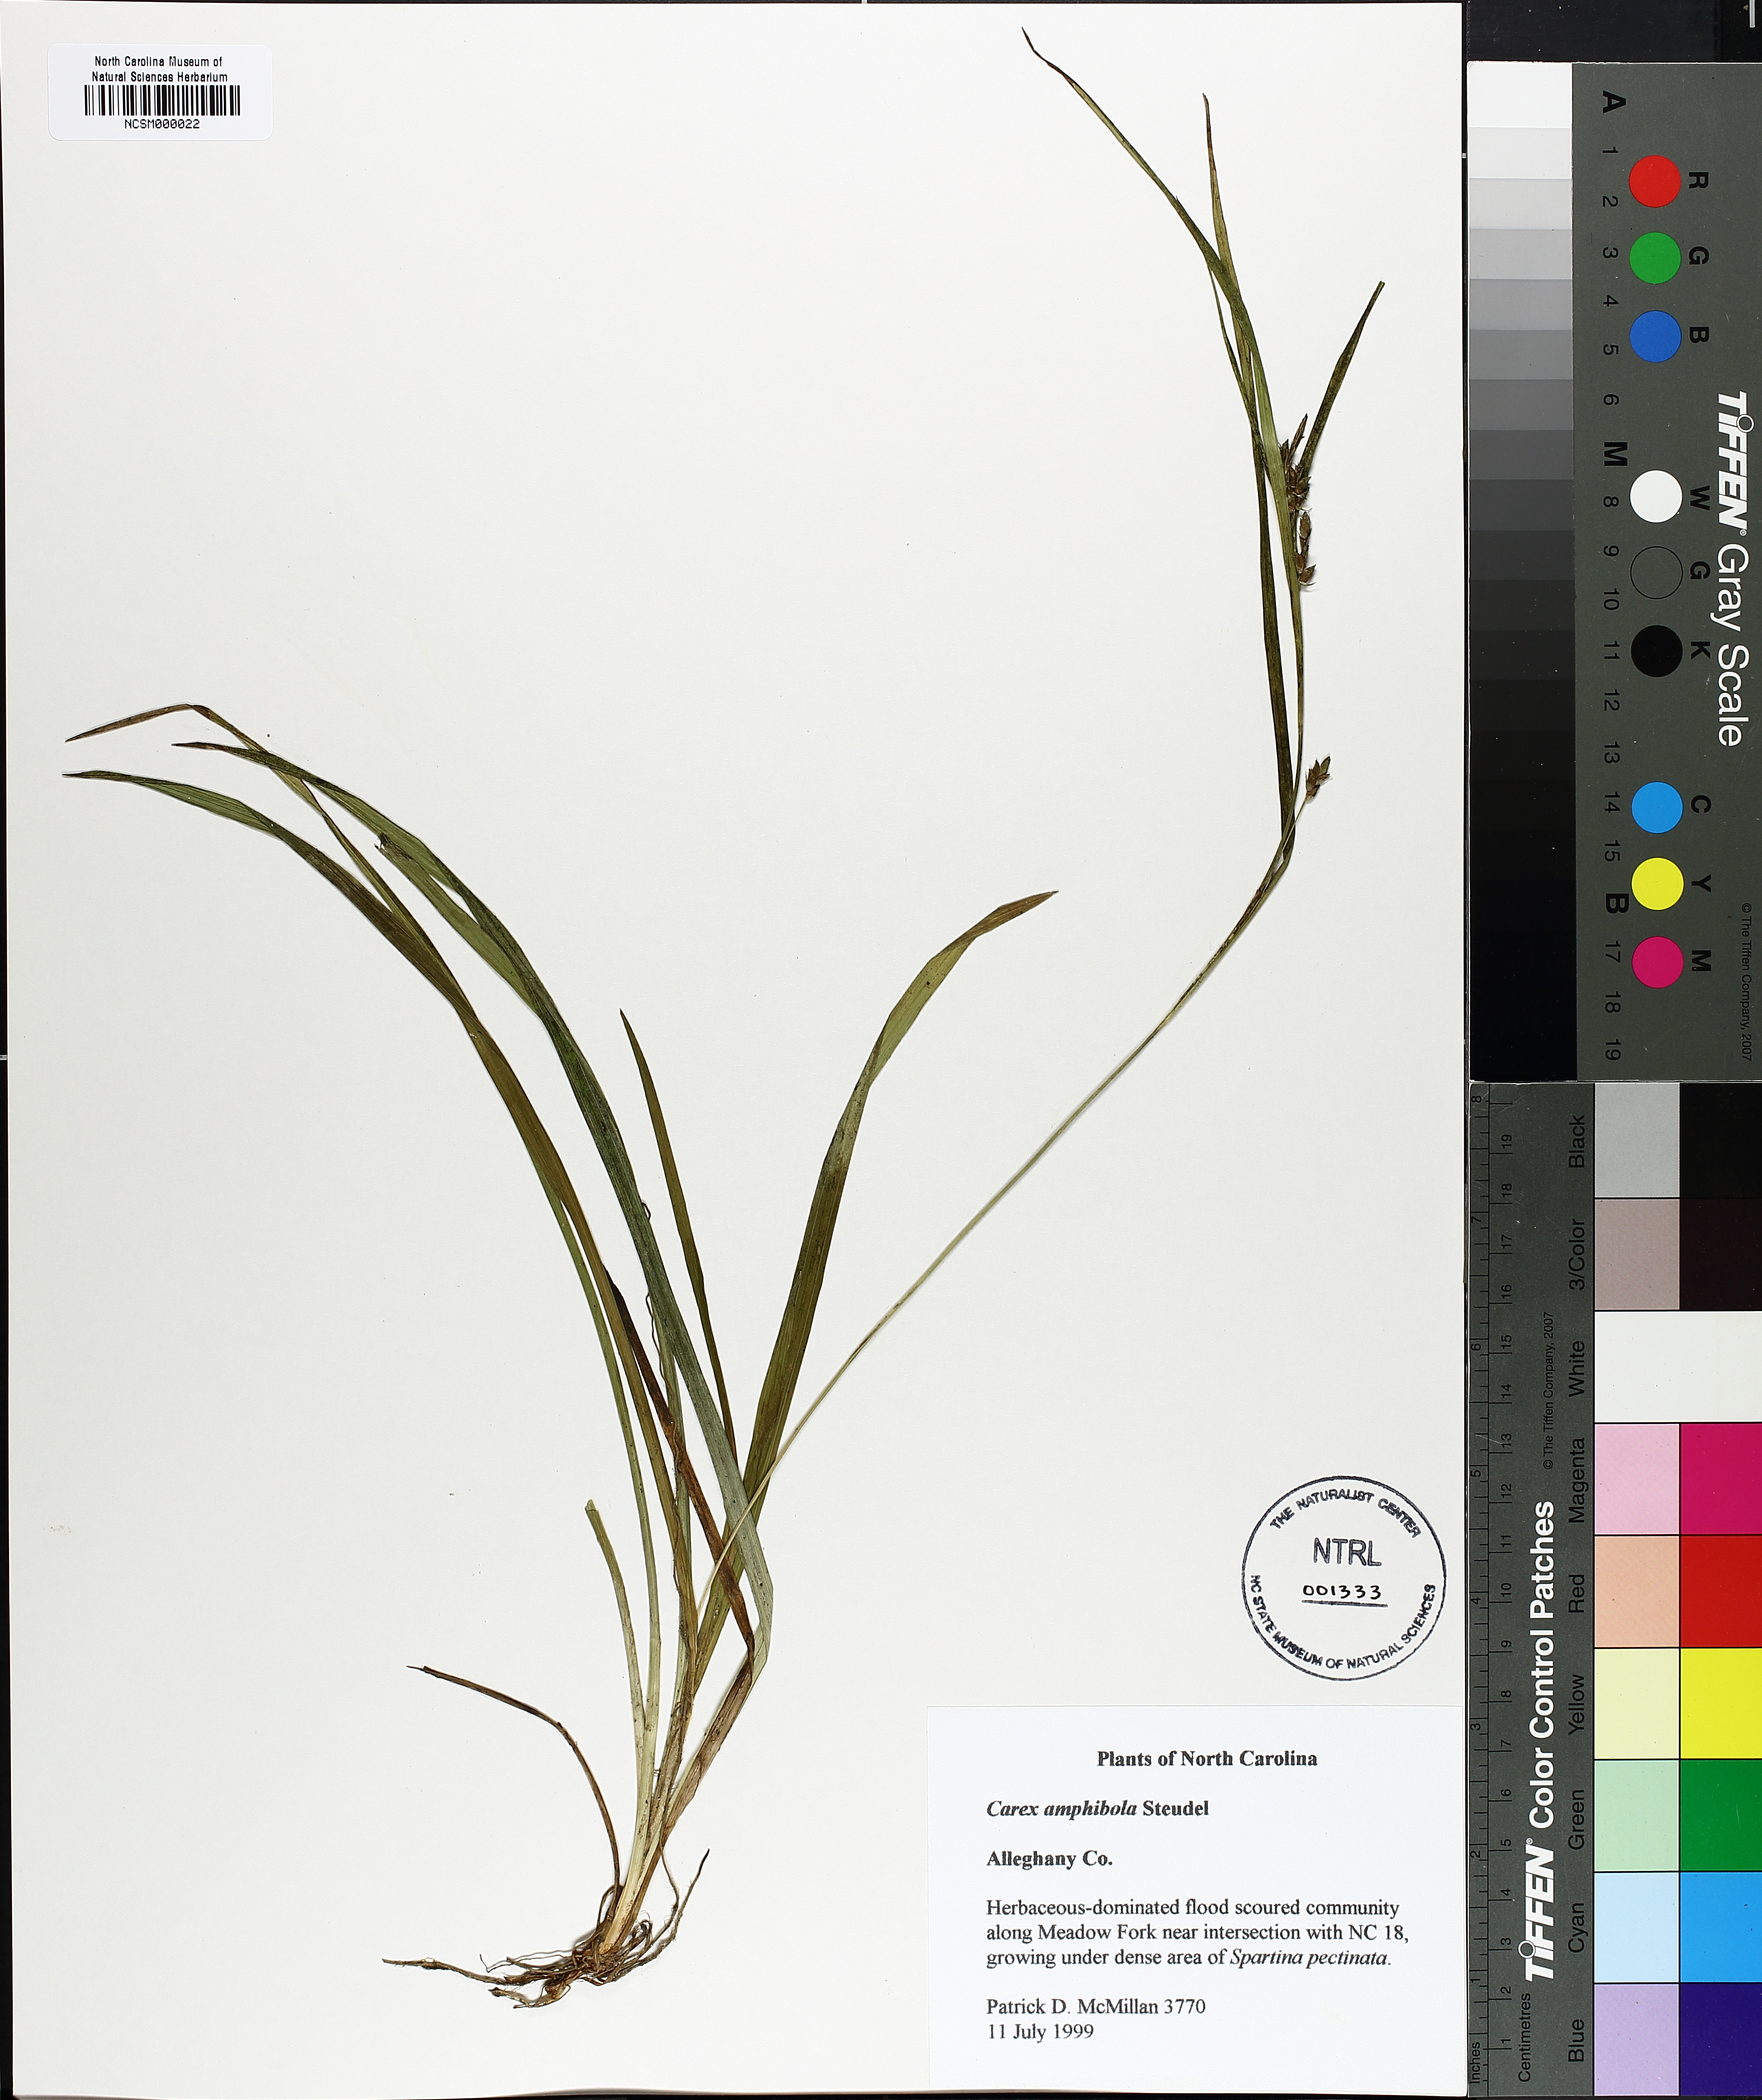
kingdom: Plantae
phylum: Tracheophyta
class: Liliopsida
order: Poales
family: Cyperaceae
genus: Carex
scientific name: Carex amphibola
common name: Amphibious sedge
